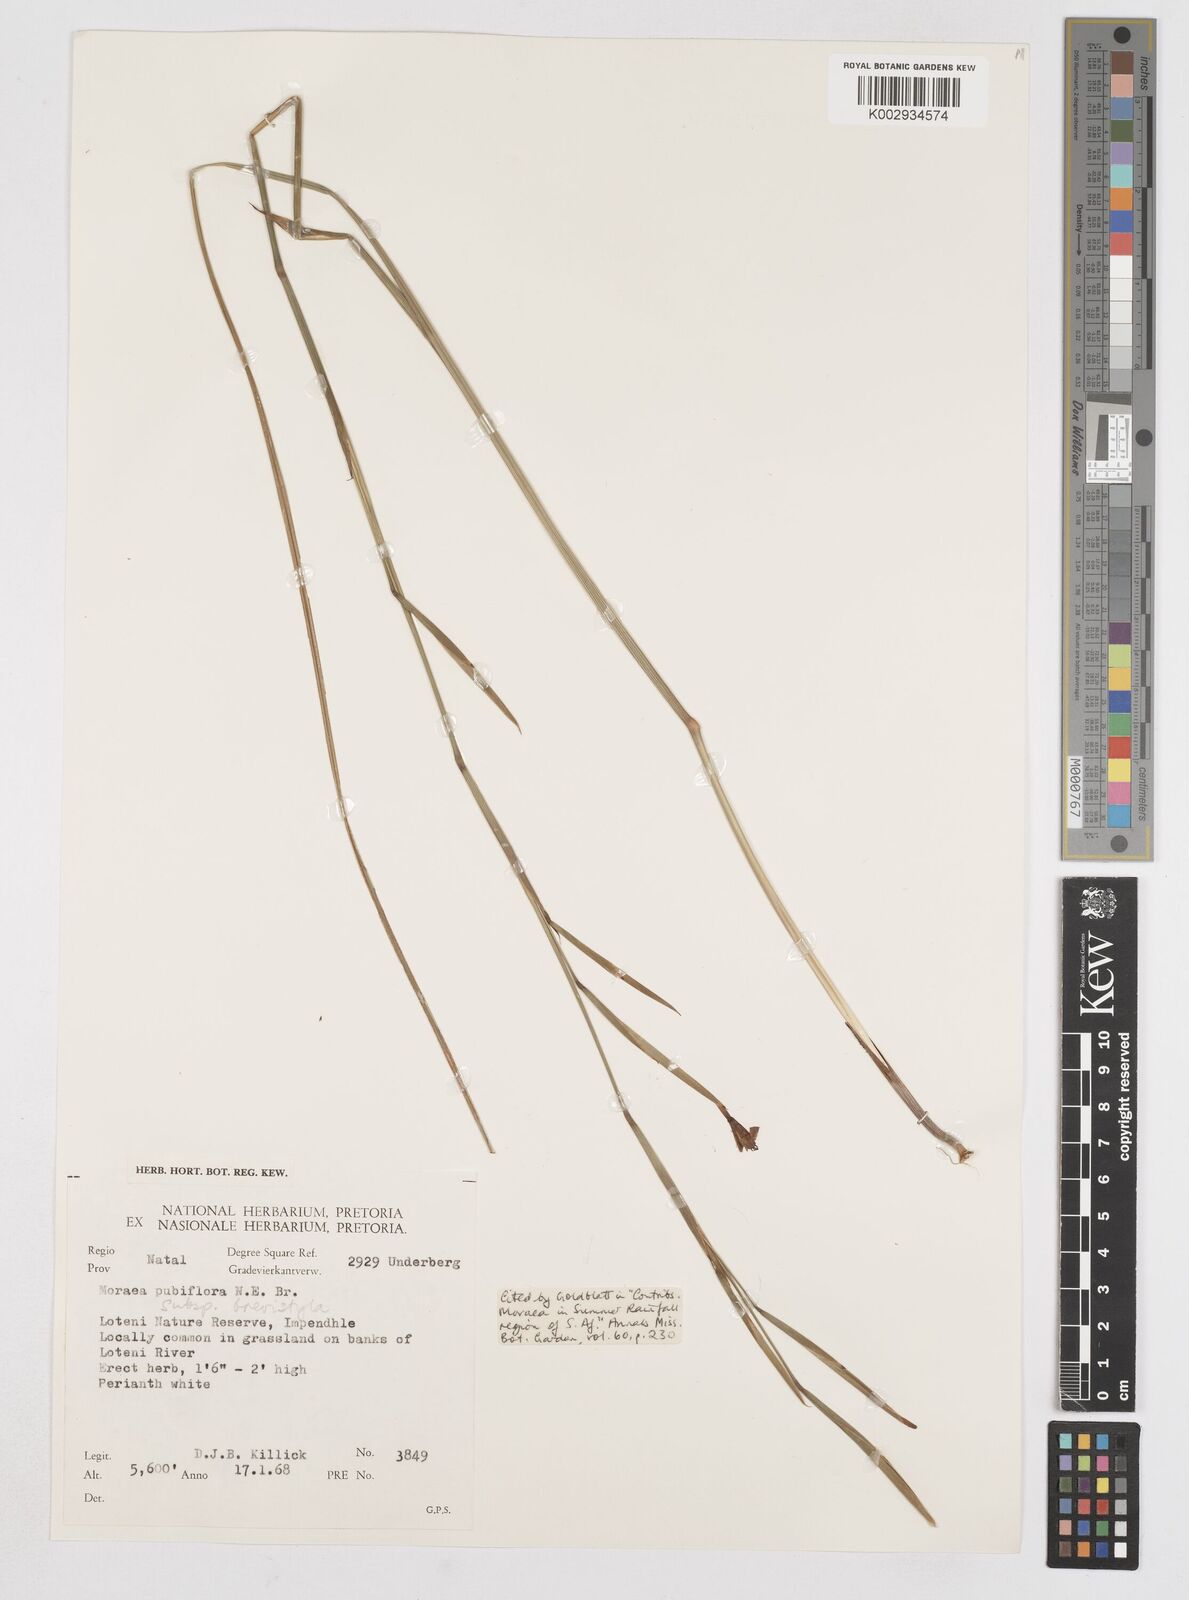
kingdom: Plantae
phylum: Tracheophyta
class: Liliopsida
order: Asparagales
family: Iridaceae
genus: Moraea
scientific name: Moraea brevistyla
